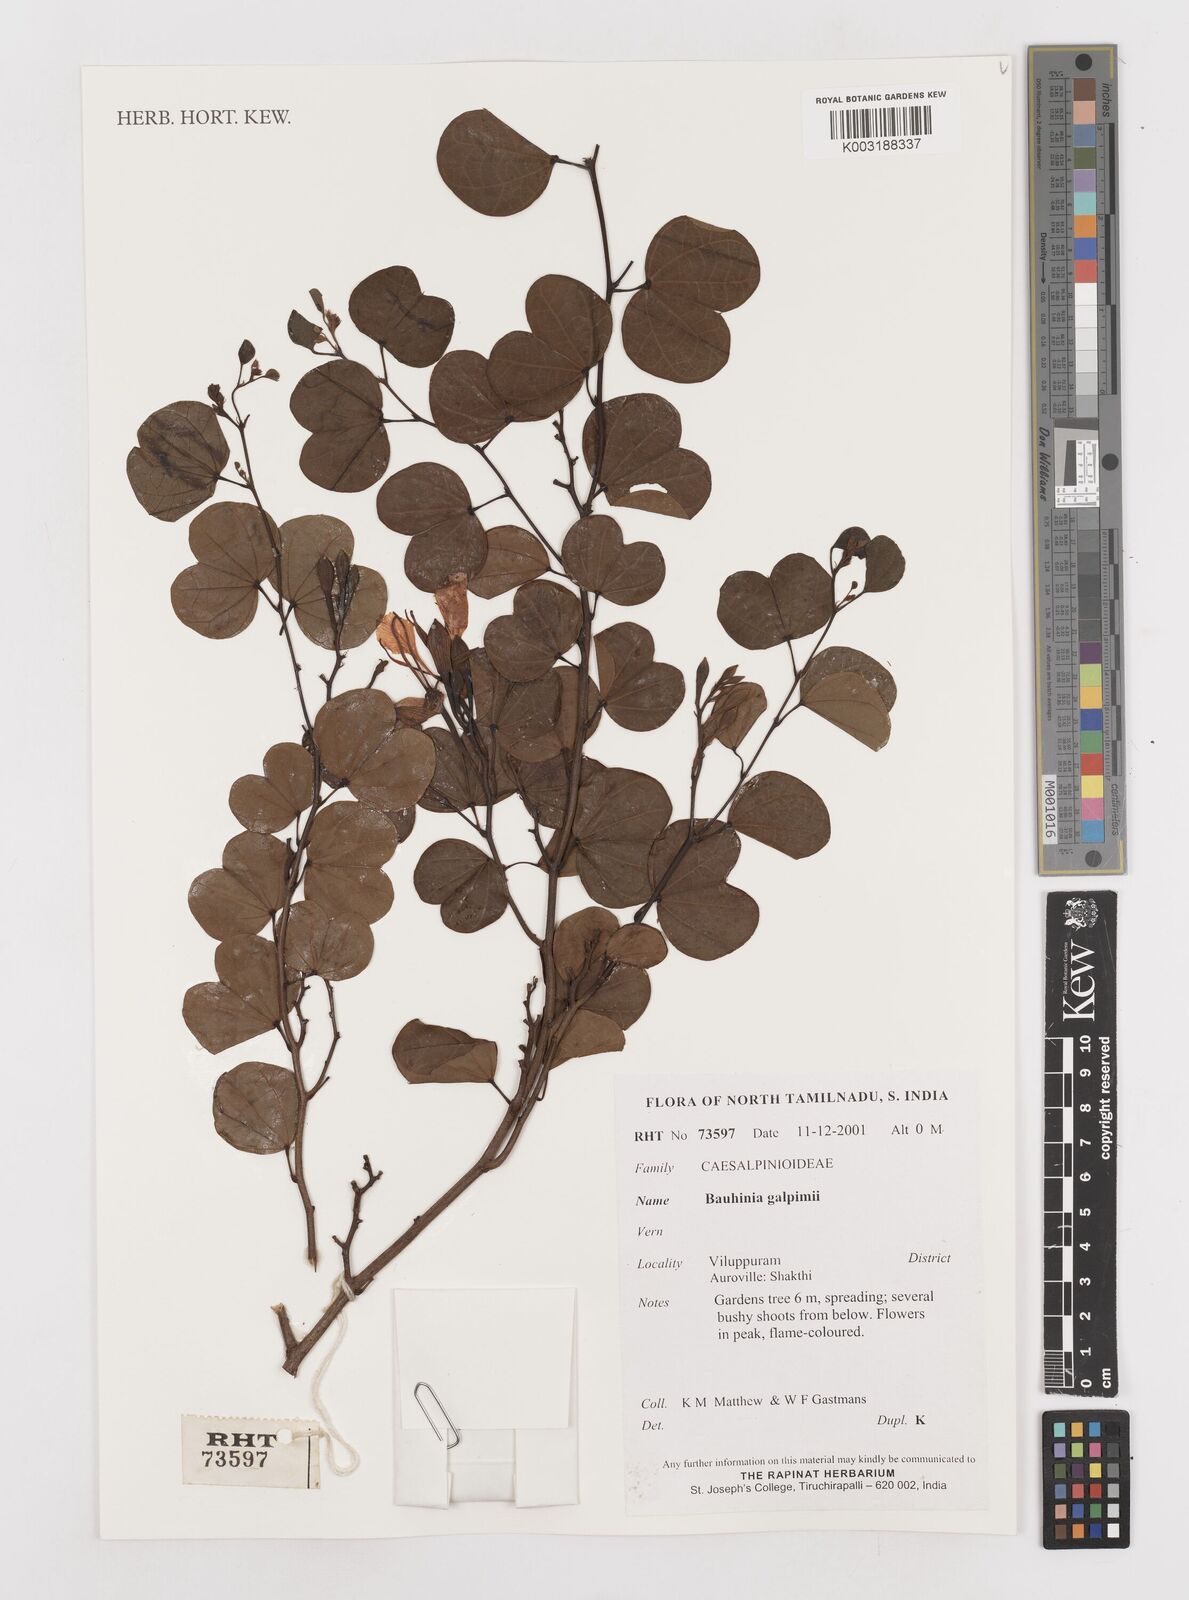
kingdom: Plantae
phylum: Tracheophyta
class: Magnoliopsida
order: Fabales
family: Fabaceae
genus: Bauhinia
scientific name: Bauhinia galpinii
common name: African plume
